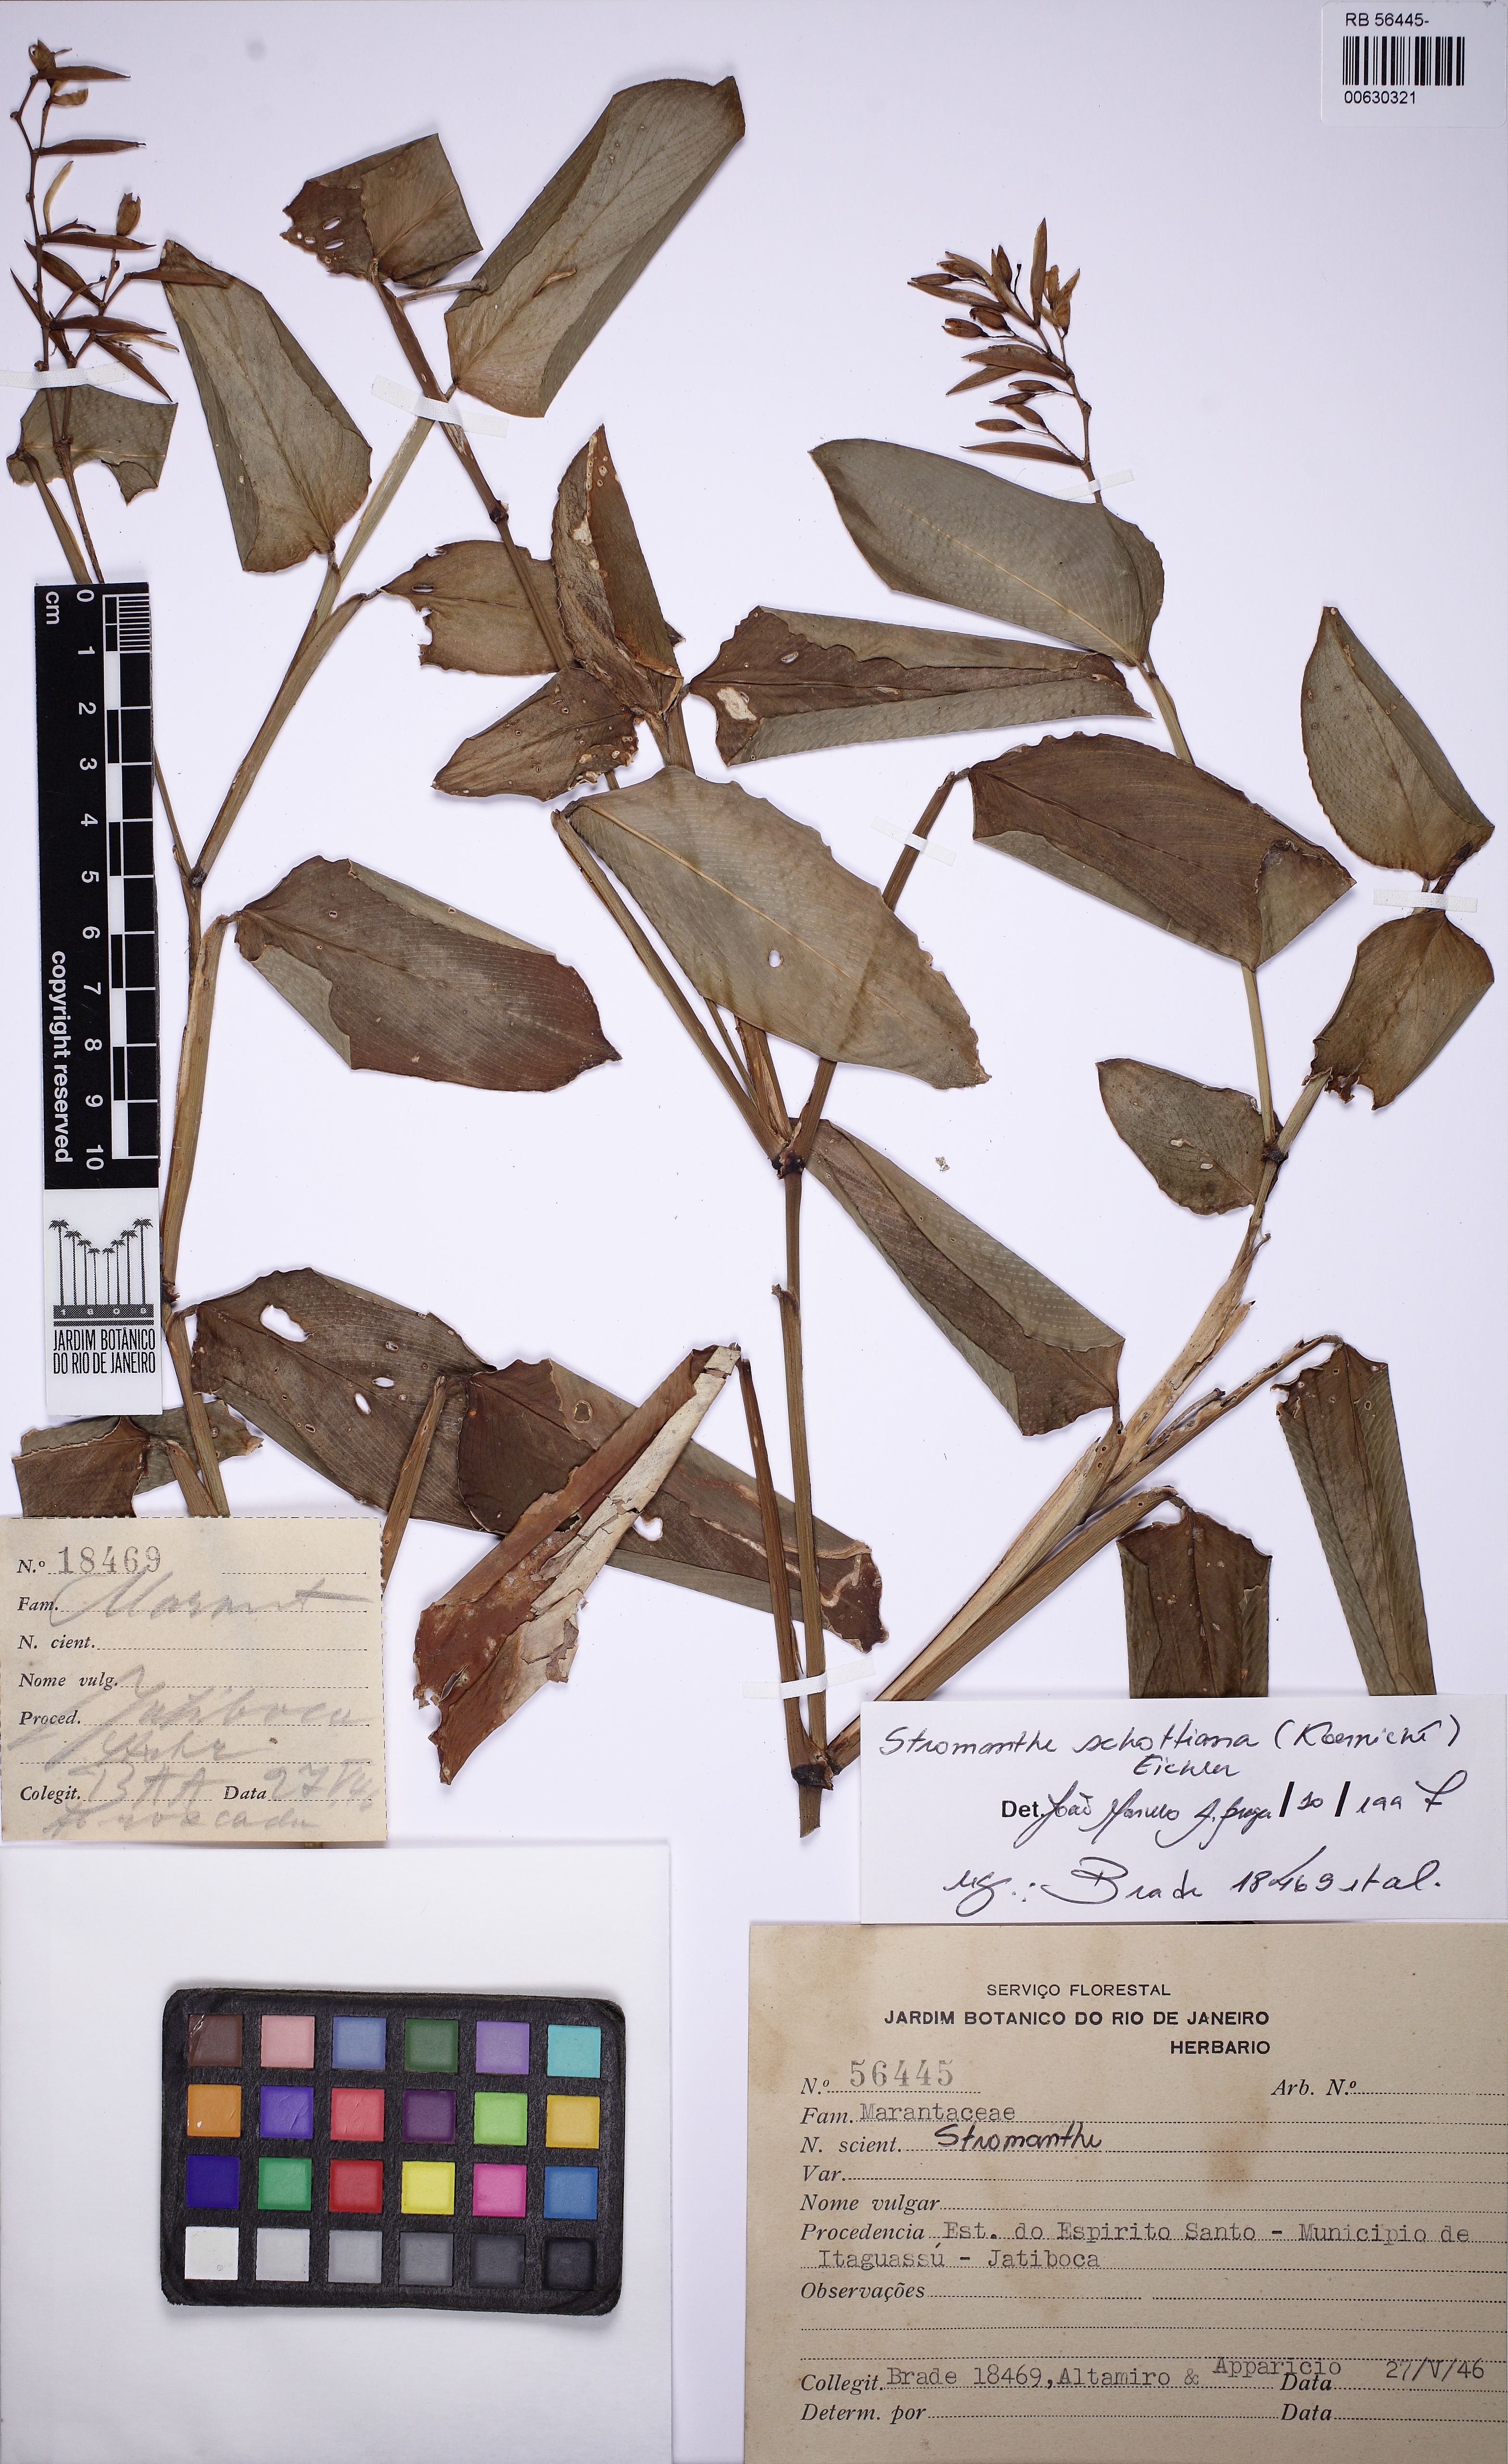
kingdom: Plantae
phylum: Tracheophyta
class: Liliopsida
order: Zingiberales
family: Marantaceae
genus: Stromanthe
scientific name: Stromanthe schottiana
